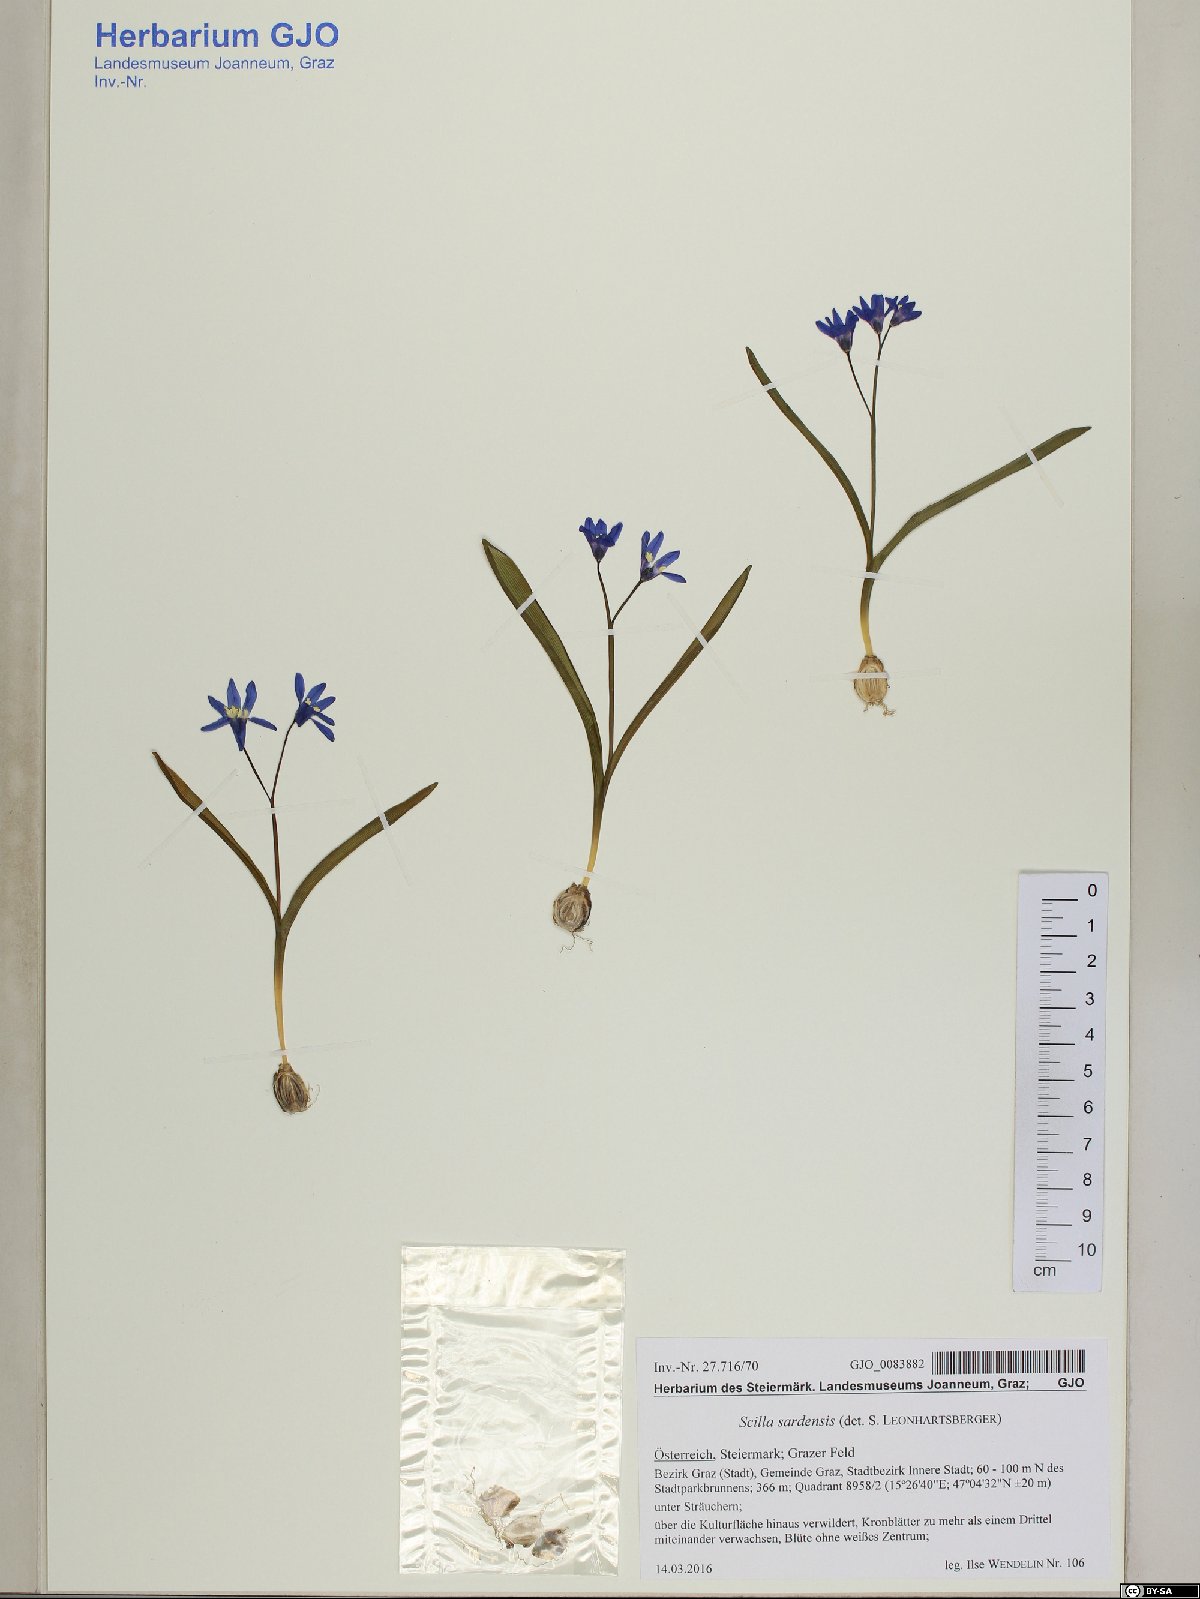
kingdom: Plantae
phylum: Tracheophyta
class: Liliopsida
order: Asparagales
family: Asparagaceae
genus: Scilla
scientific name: Scilla sardensis
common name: Lesser glory-of-the-snow
